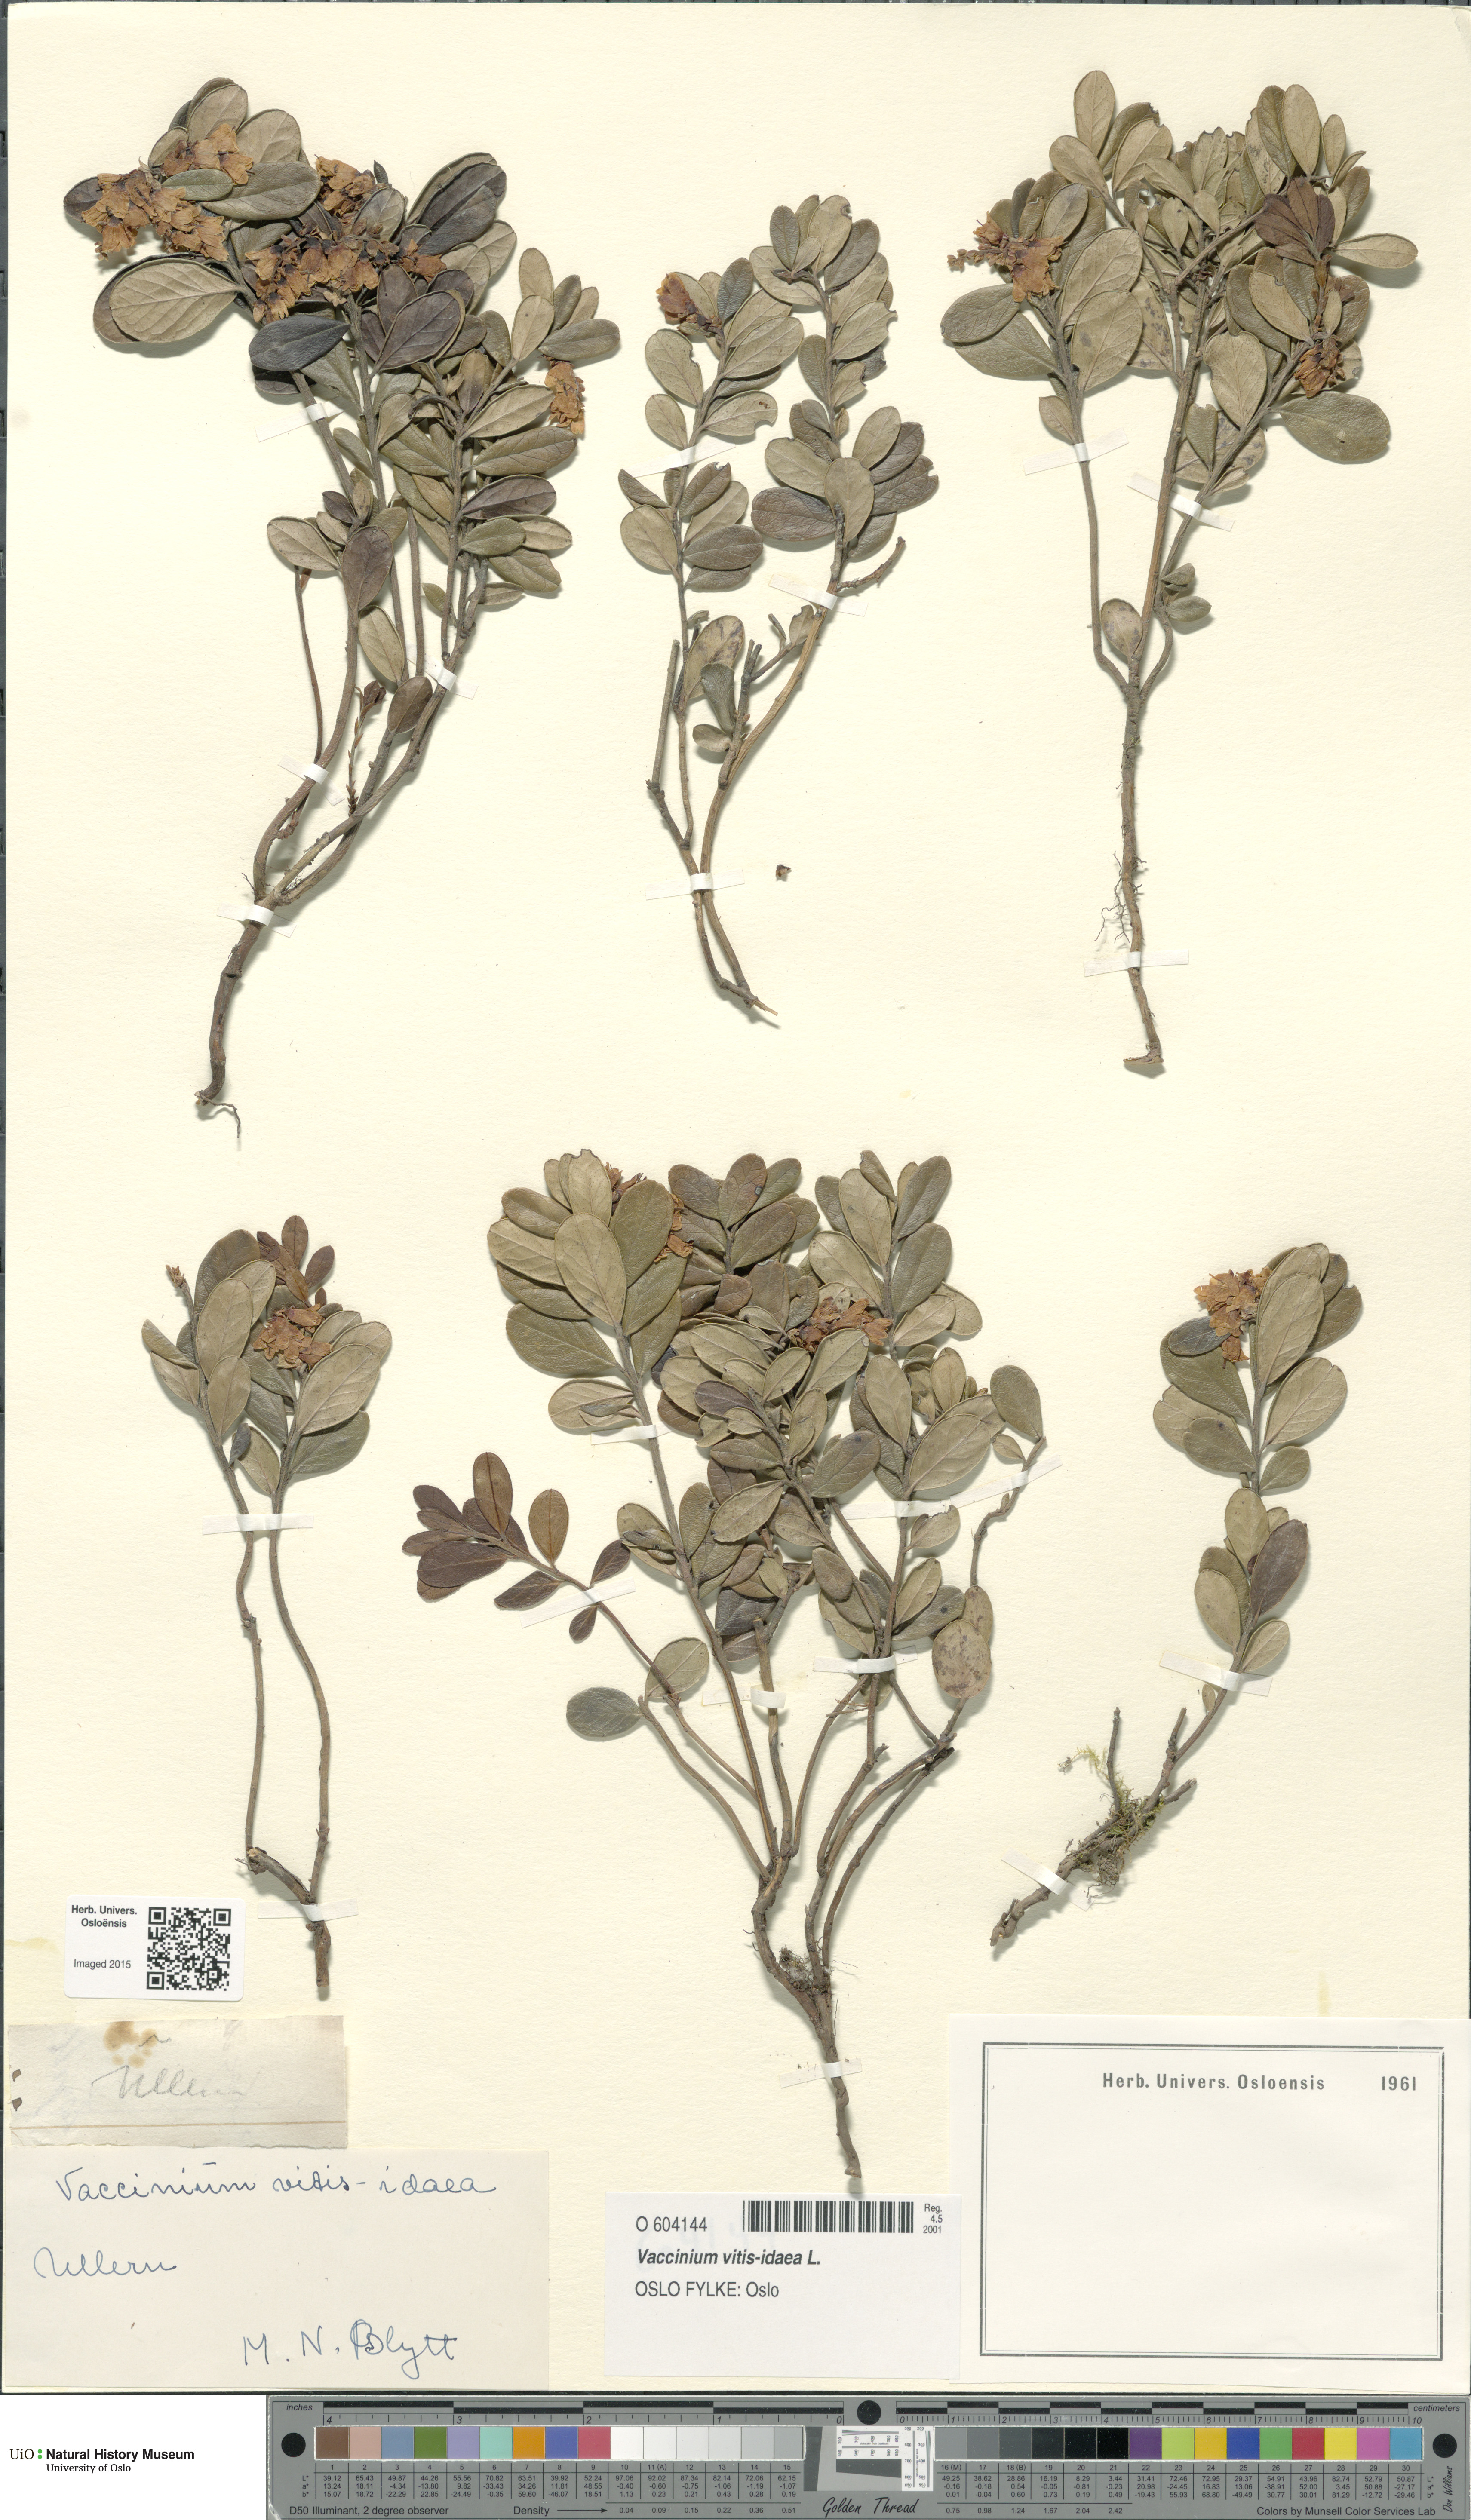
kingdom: Plantae
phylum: Tracheophyta
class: Magnoliopsida
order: Ericales
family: Ericaceae
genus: Vaccinium
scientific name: Vaccinium vitis-idaea
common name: Cowberry
